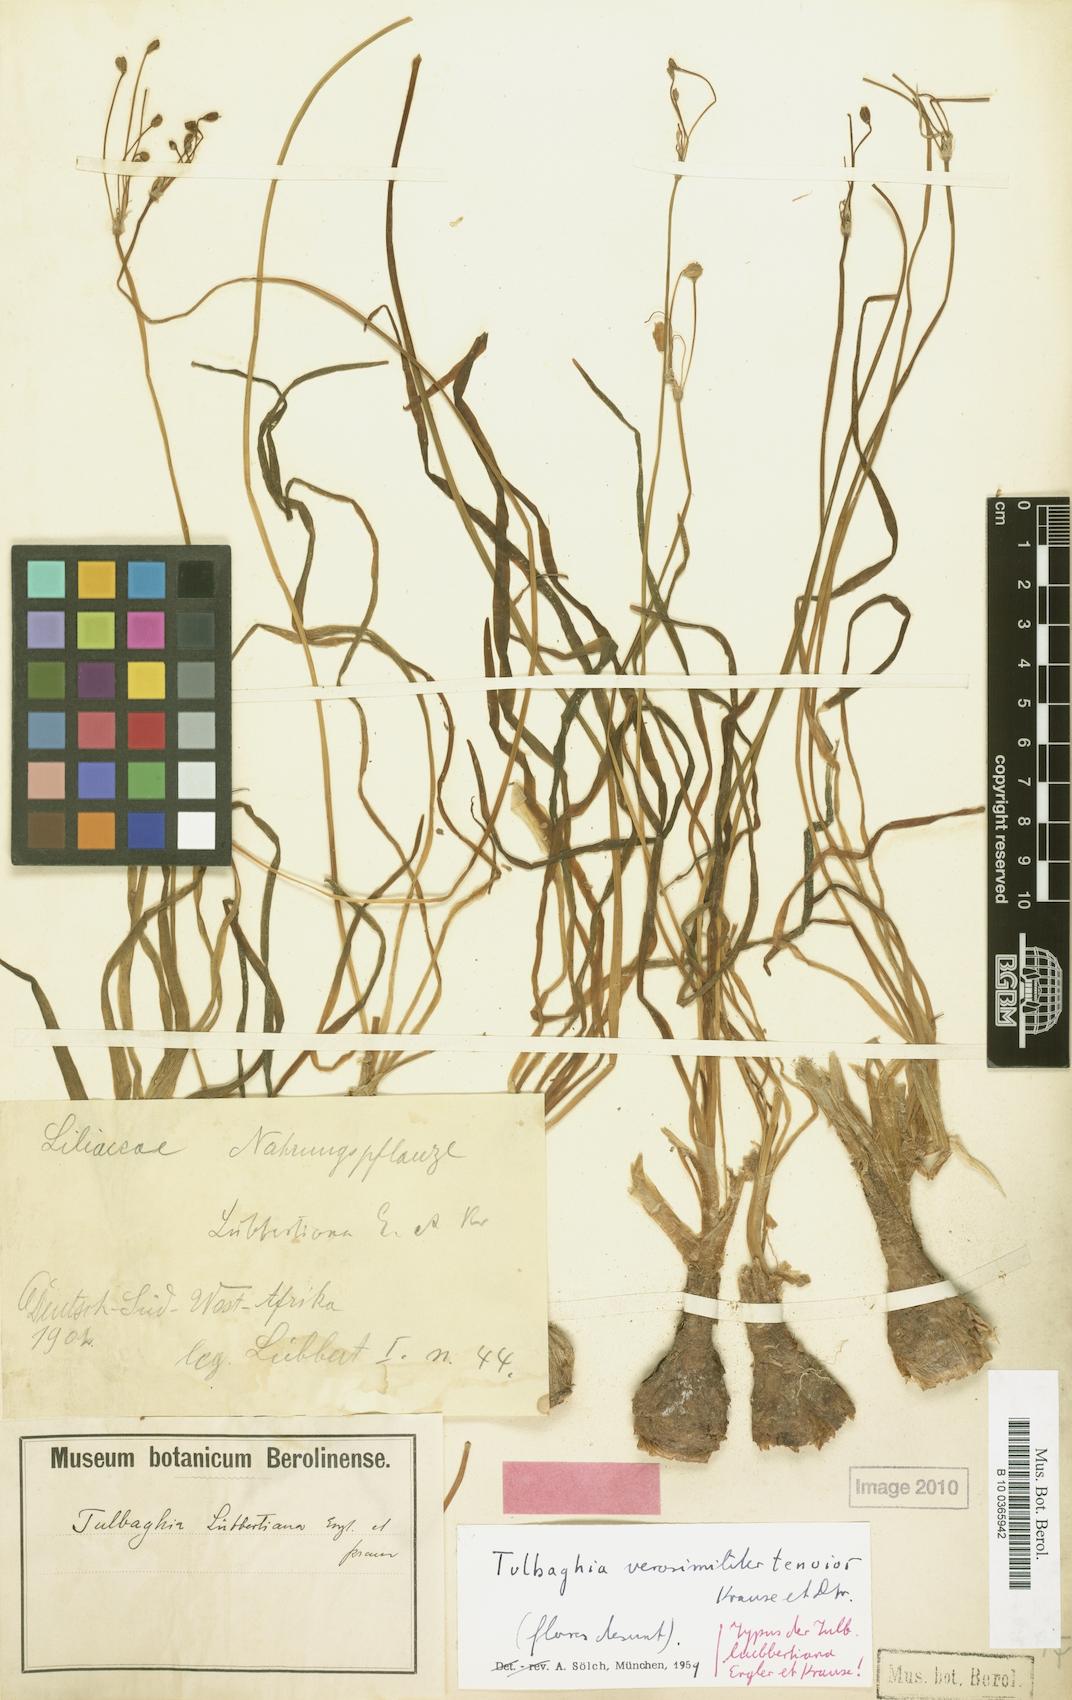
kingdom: Plantae
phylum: Tracheophyta
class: Liliopsida
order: Liliales
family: Liliaceae
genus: Tulbaghia
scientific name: Tulbaghia
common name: Tulbaghia
